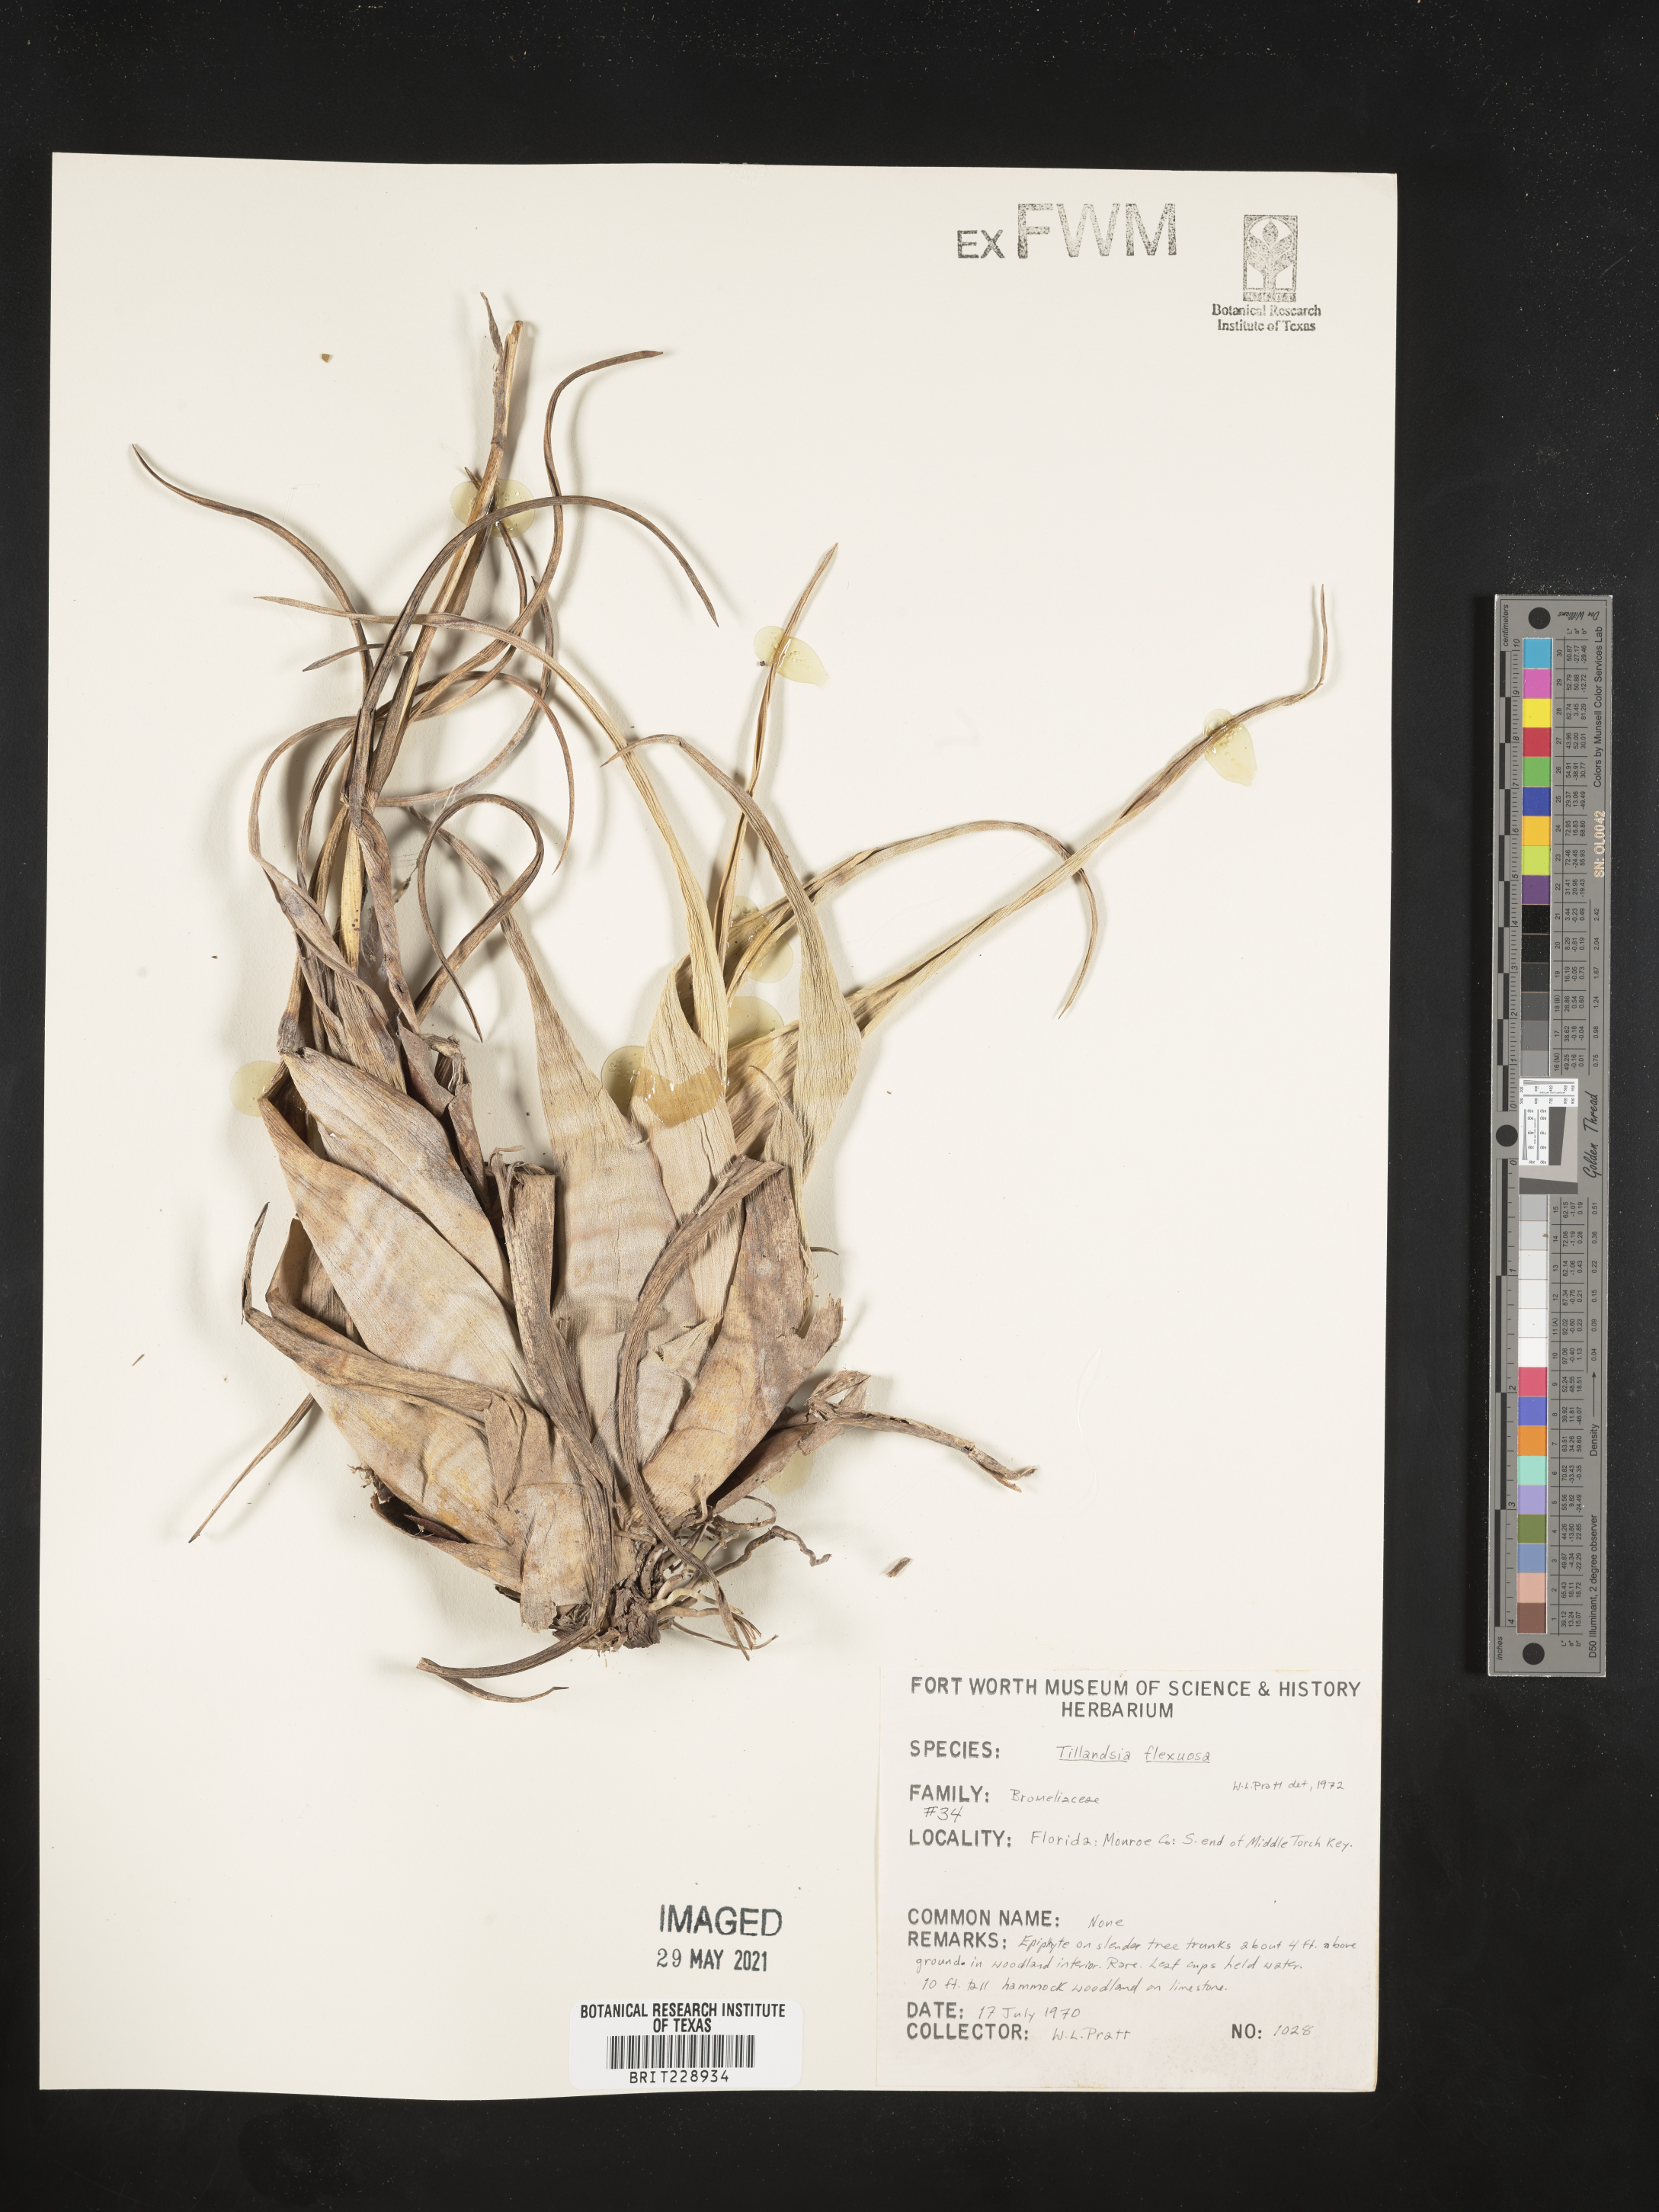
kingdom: Plantae
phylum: Tracheophyta
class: Liliopsida
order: Poales
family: Bromeliaceae
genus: Tillandsia
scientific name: Tillandsia flexuosa
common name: Banded airplant
